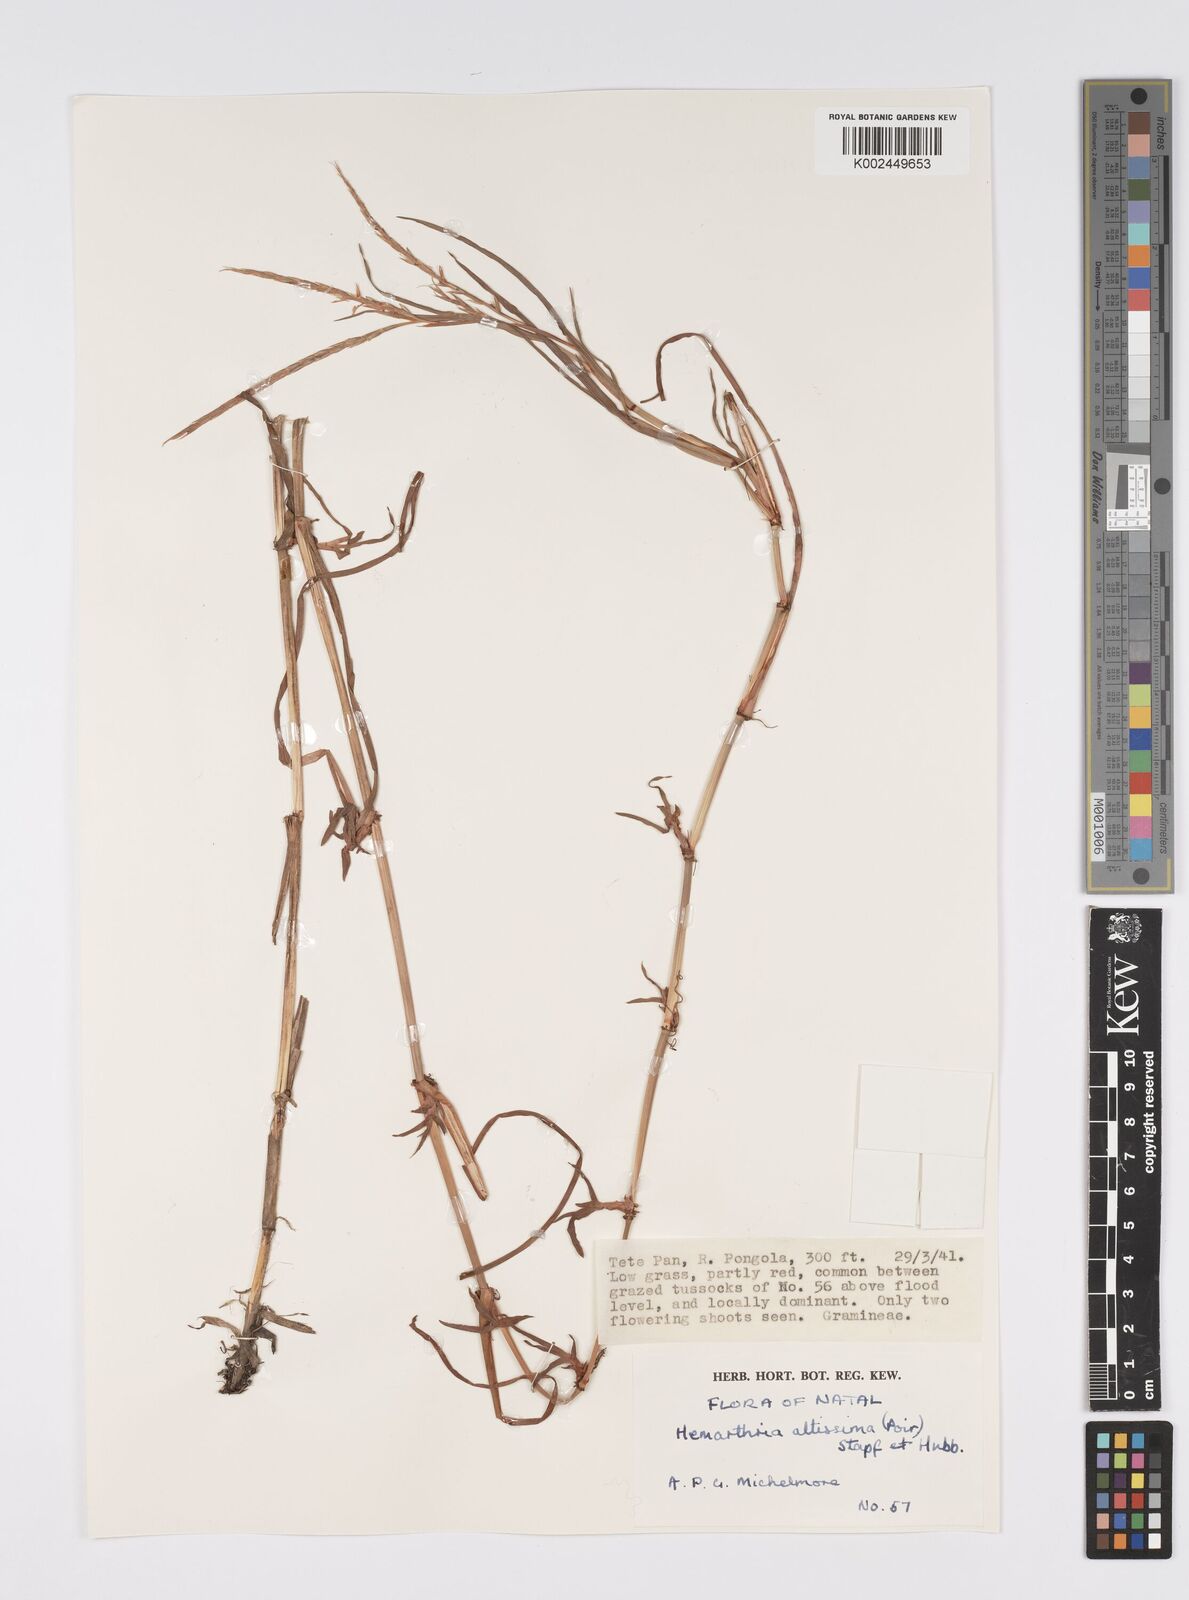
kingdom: Plantae
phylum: Tracheophyta
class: Liliopsida
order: Poales
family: Poaceae
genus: Hemarthria
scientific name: Hemarthria altissima
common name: African jointgrass
